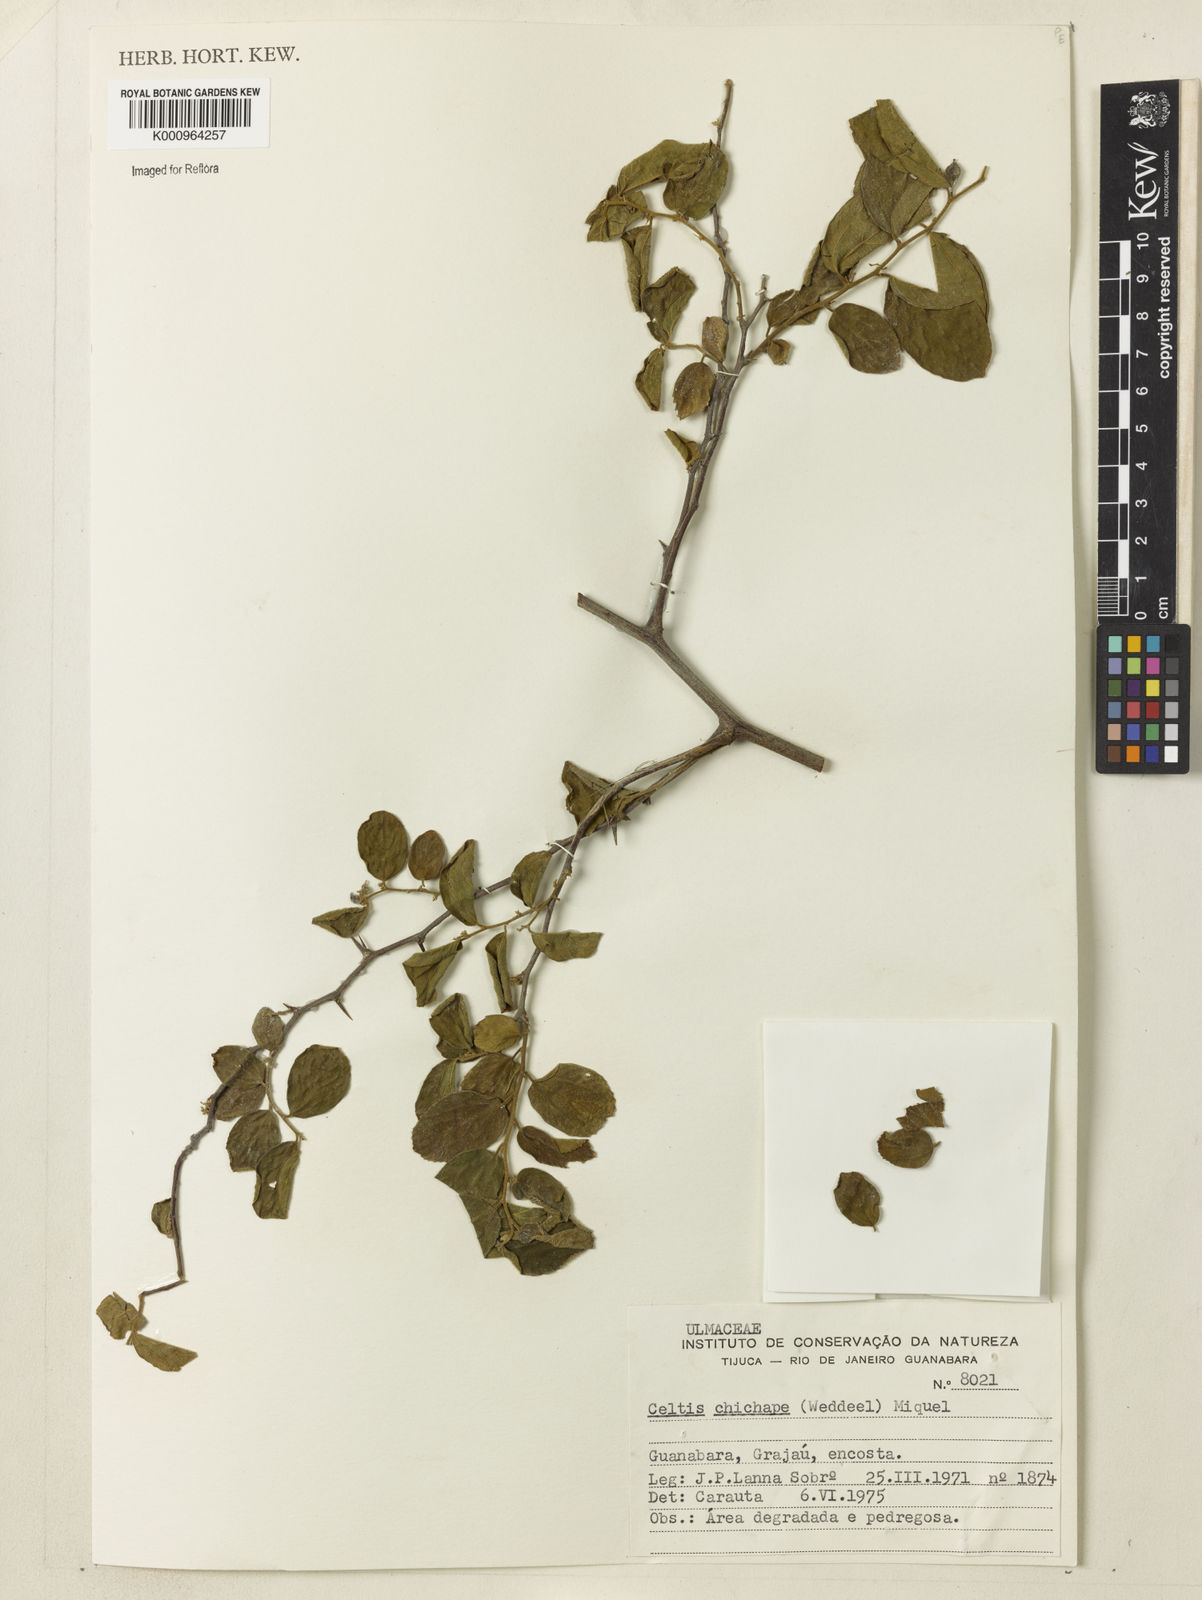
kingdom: Plantae
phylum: Tracheophyta
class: Magnoliopsida
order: Rosales
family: Cannabaceae
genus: Celtis
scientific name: Celtis
